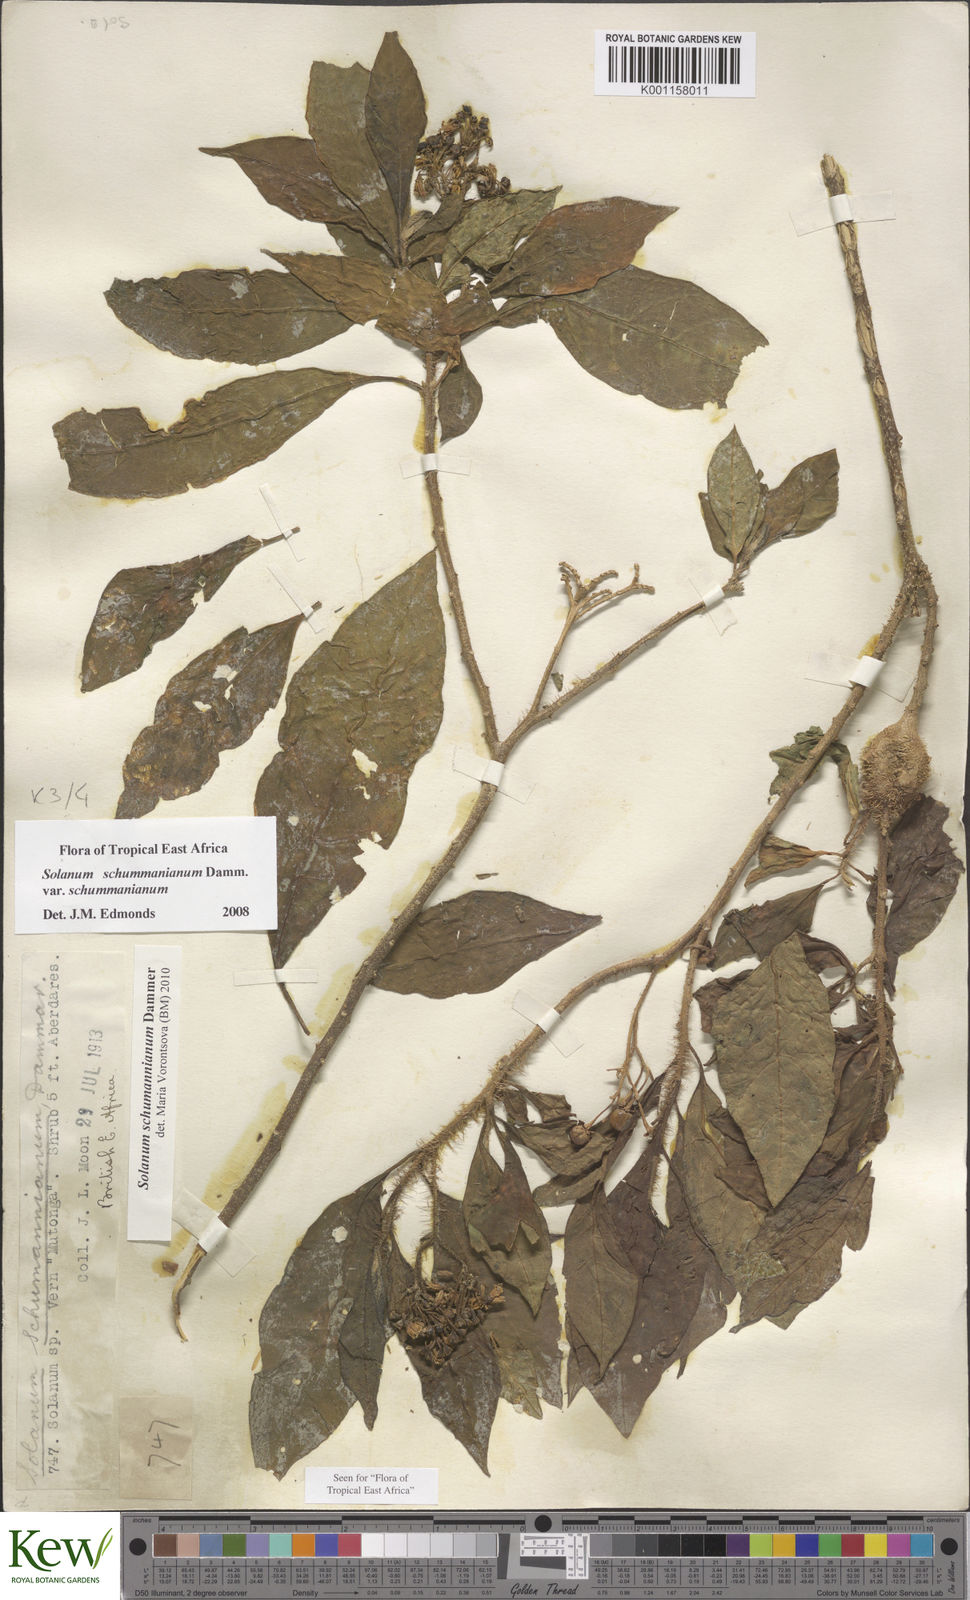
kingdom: Plantae
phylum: Tracheophyta
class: Magnoliopsida
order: Solanales
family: Solanaceae
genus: Solanum
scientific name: Solanum schumannianum
